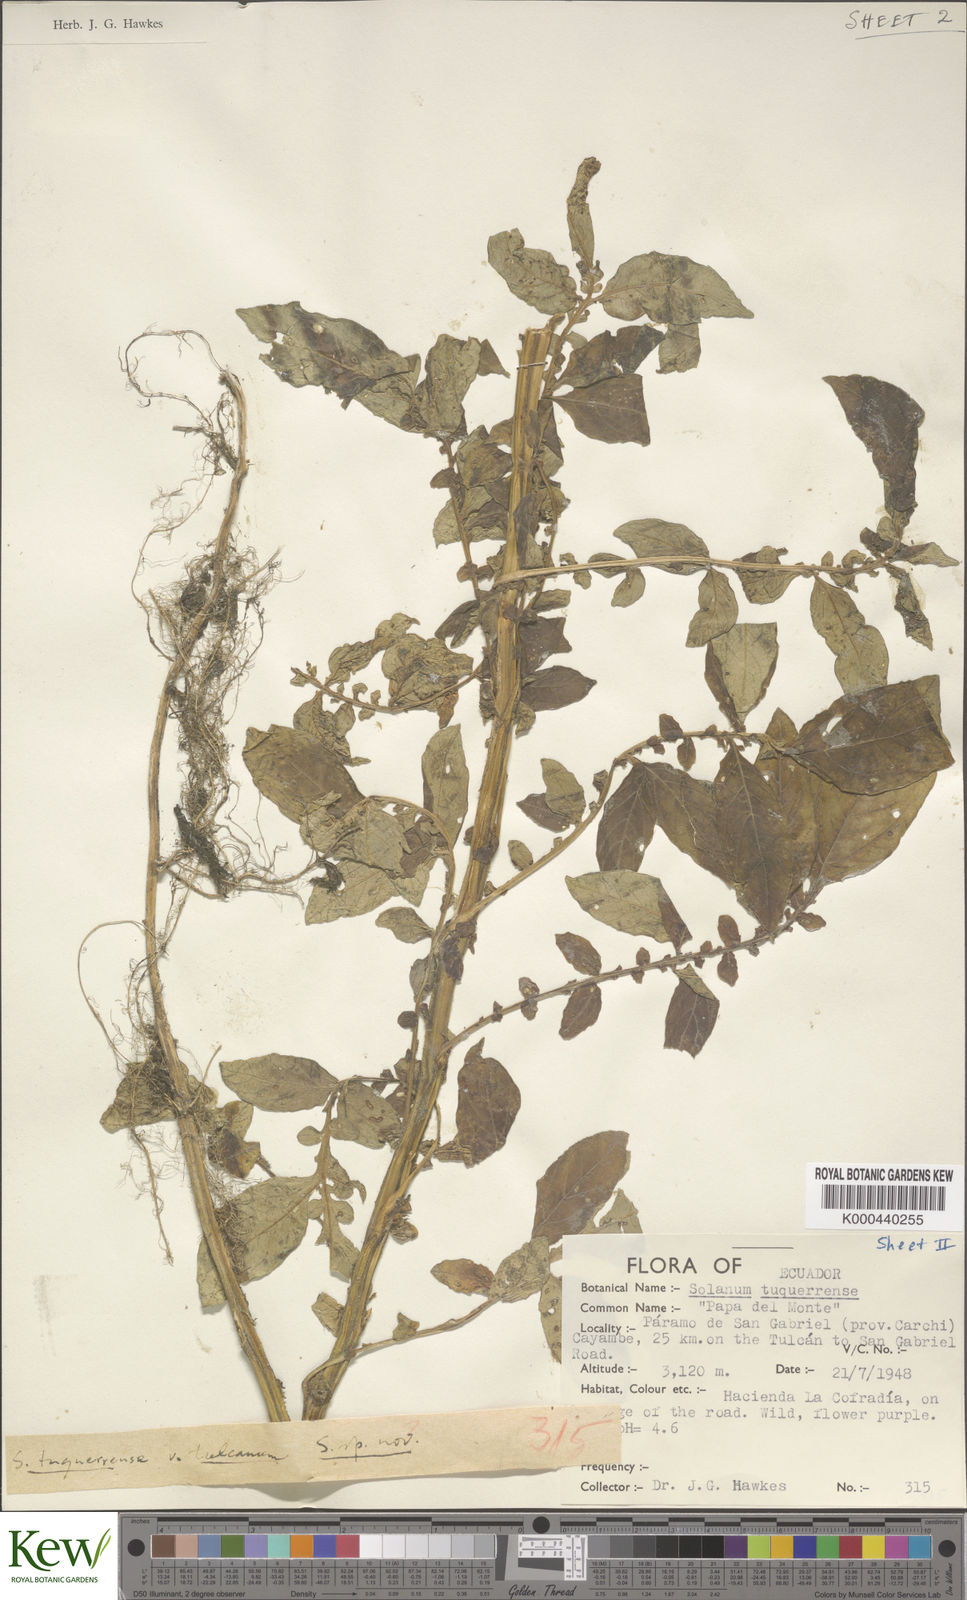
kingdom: Plantae
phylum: Tracheophyta
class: Magnoliopsida
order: Solanales
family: Solanaceae
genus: Solanum
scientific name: Solanum andreanum
